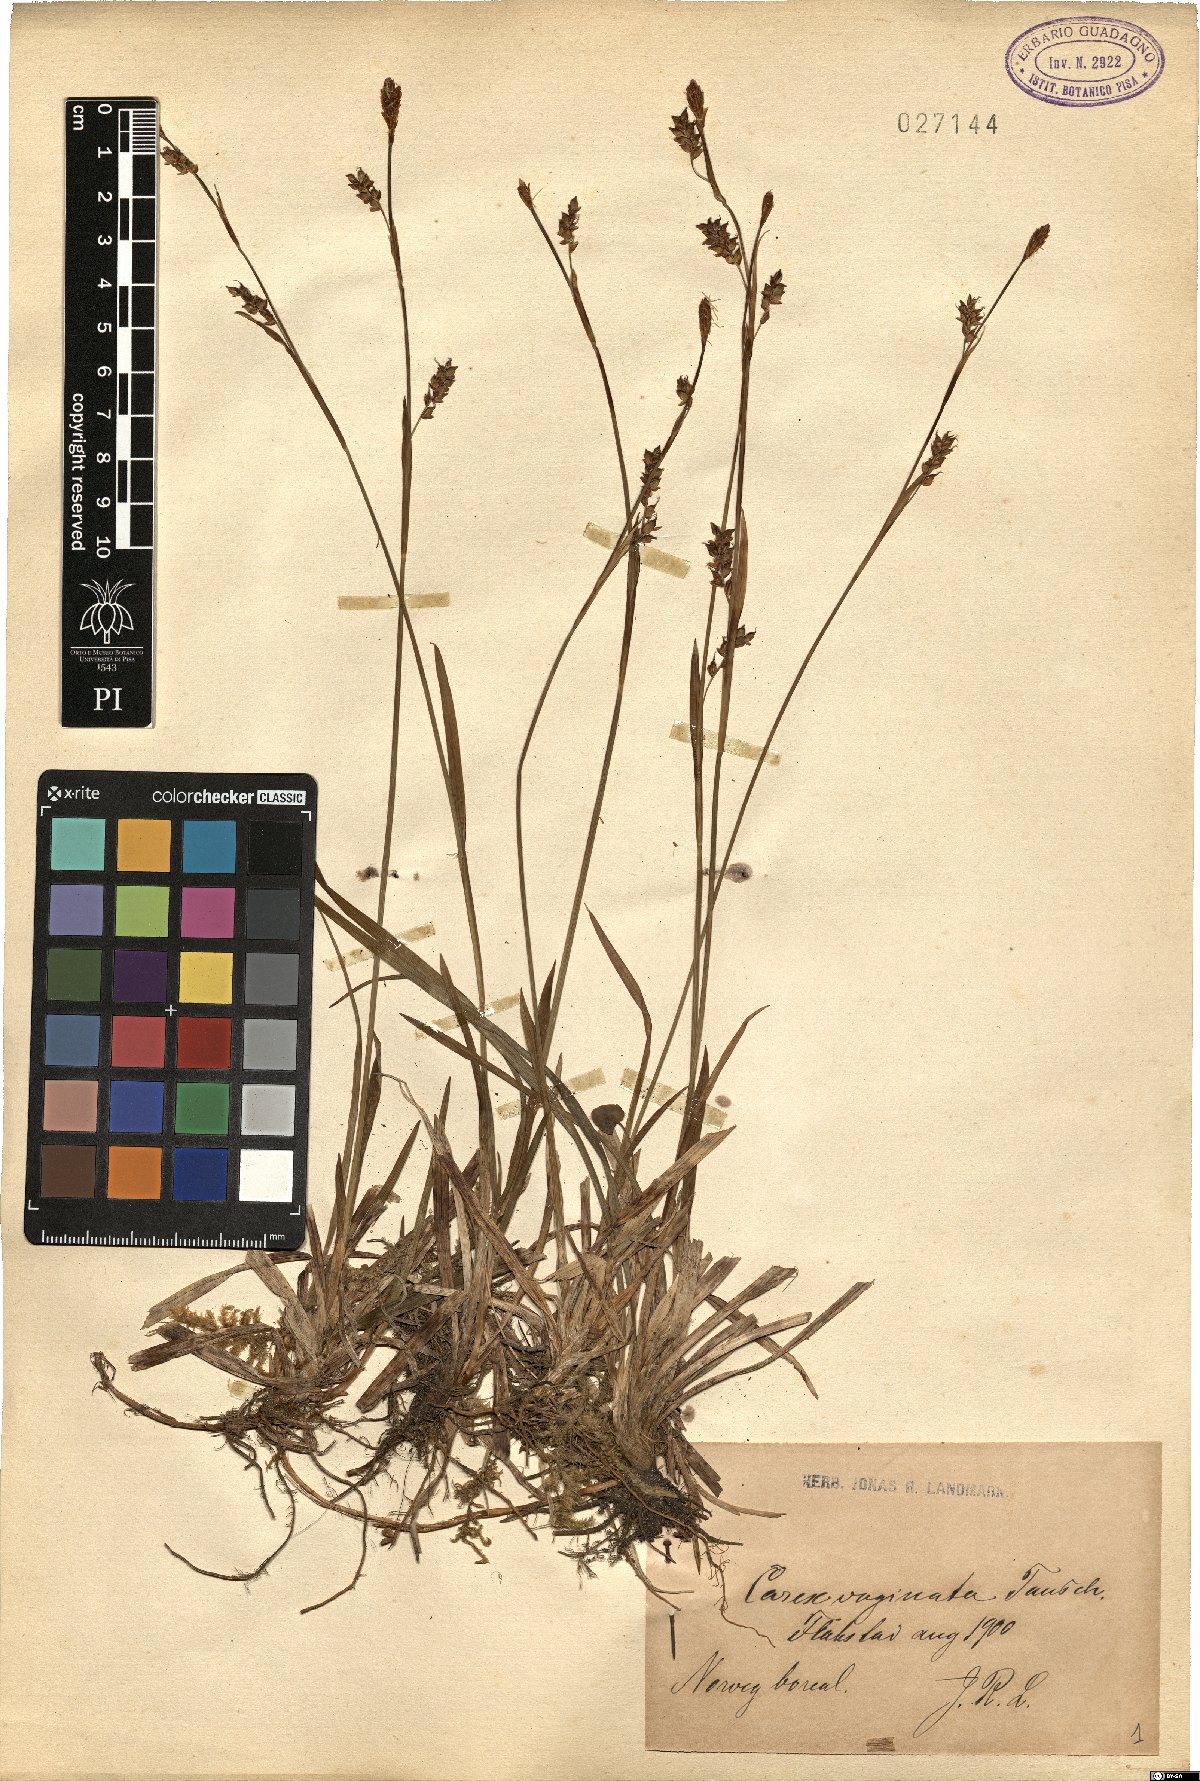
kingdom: Plantae
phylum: Tracheophyta
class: Liliopsida
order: Poales
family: Cyperaceae
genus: Carex
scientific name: Carex vaginata
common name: Sheathed sedge
